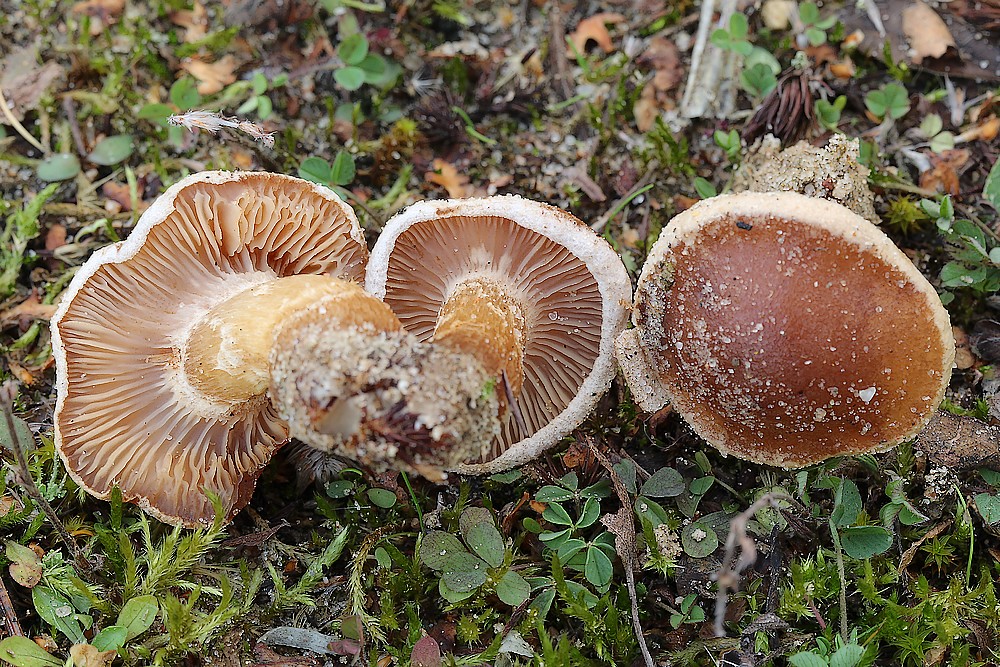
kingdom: Fungi
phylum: Basidiomycota
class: Agaricomycetes
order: Agaricales
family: Hymenogastraceae
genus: Hebeloma
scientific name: Hebeloma mesophaeum
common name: lerbrun tåreblad
